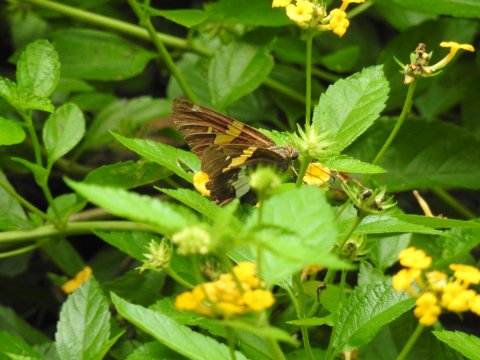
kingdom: Animalia
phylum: Arthropoda
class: Insecta
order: Lepidoptera
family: Hesperiidae
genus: Epargyreus
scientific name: Epargyreus clarus
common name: Silver-spotted Skipper
